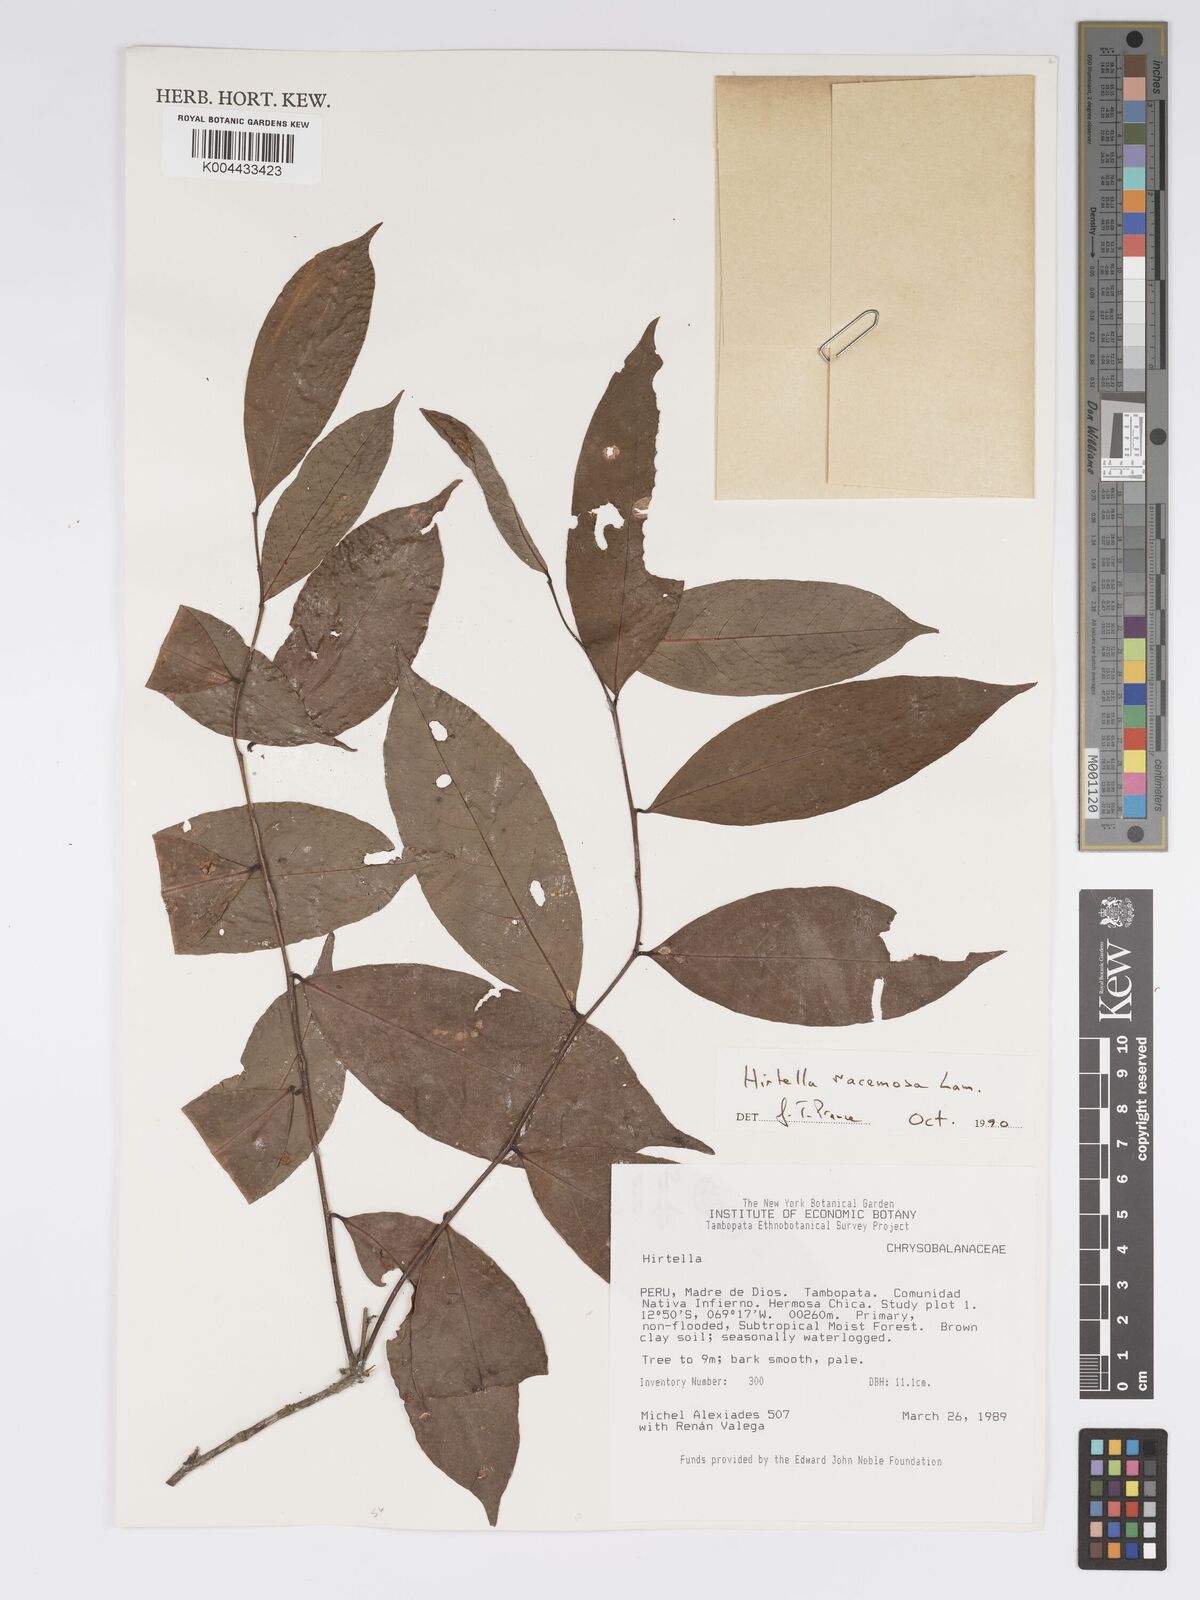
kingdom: Plantae
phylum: Tracheophyta
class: Magnoliopsida
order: Malpighiales
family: Chrysobalanaceae
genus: Hirtella
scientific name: Hirtella racemosa
